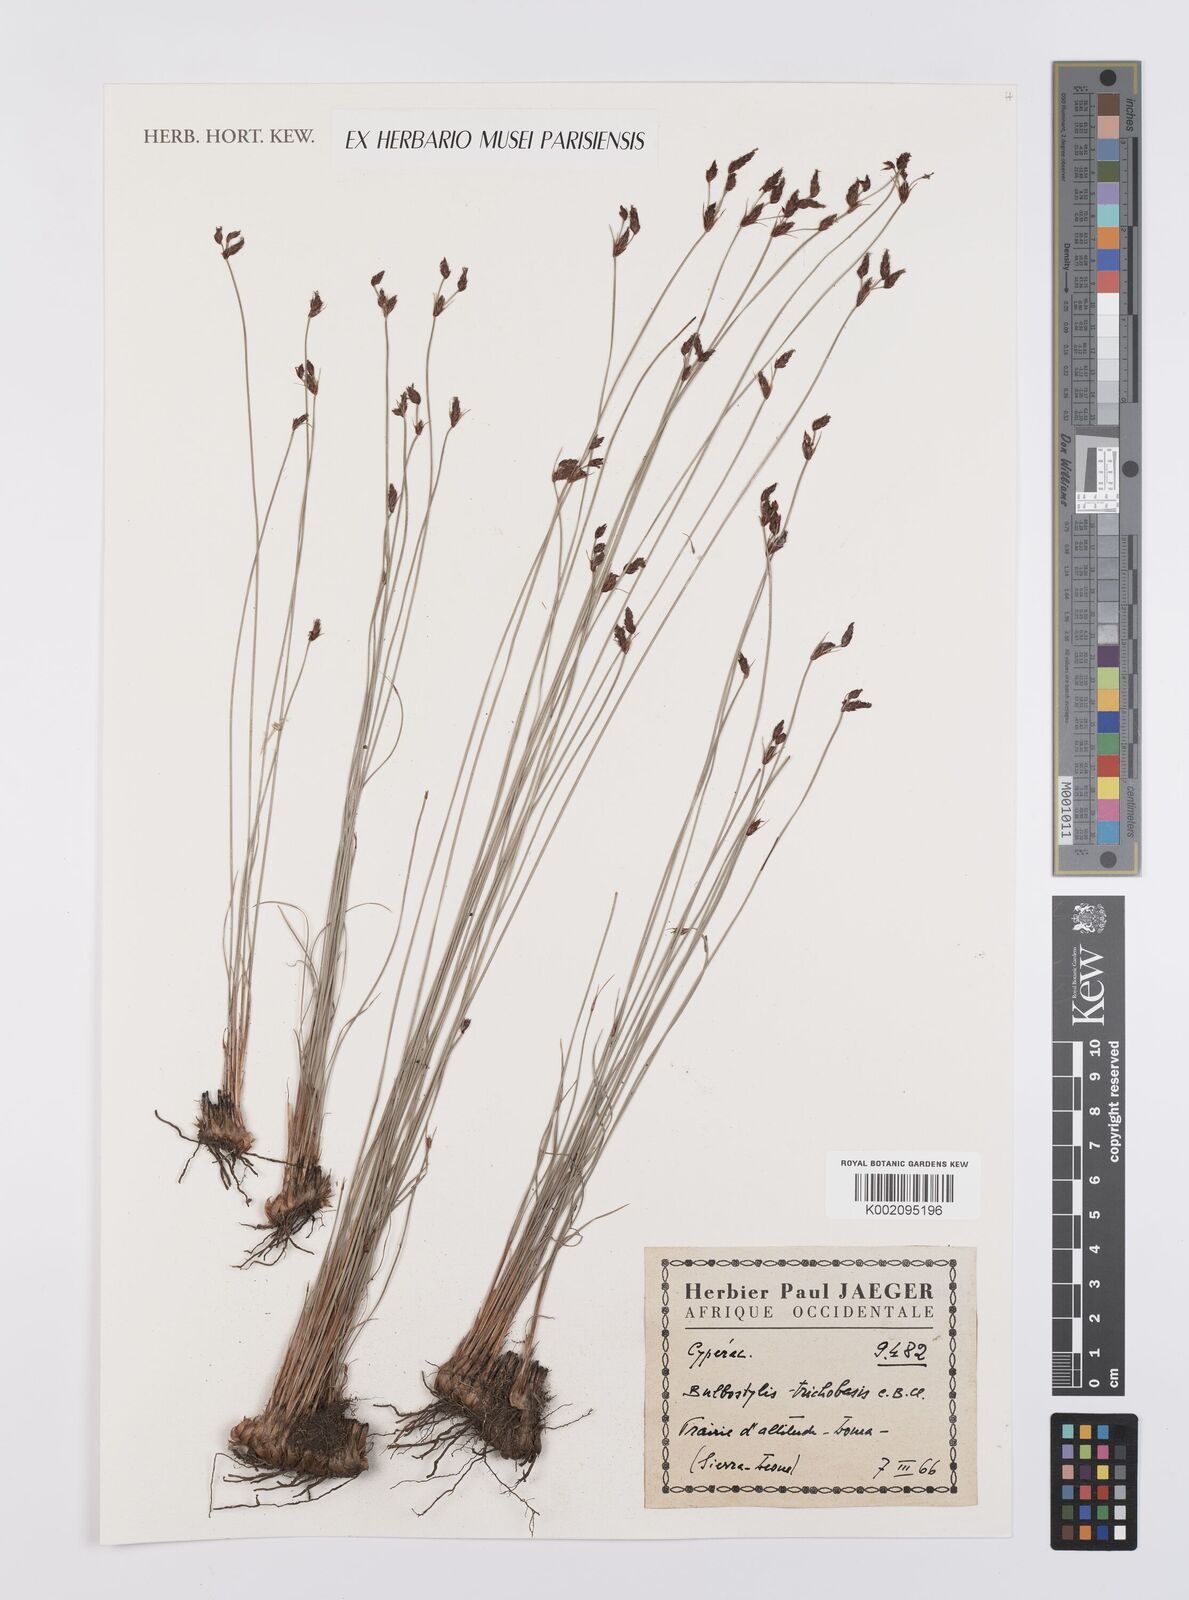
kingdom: Plantae
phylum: Tracheophyta
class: Liliopsida
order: Poales
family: Cyperaceae
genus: Bulbostylis
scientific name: Bulbostylis trichobasis
